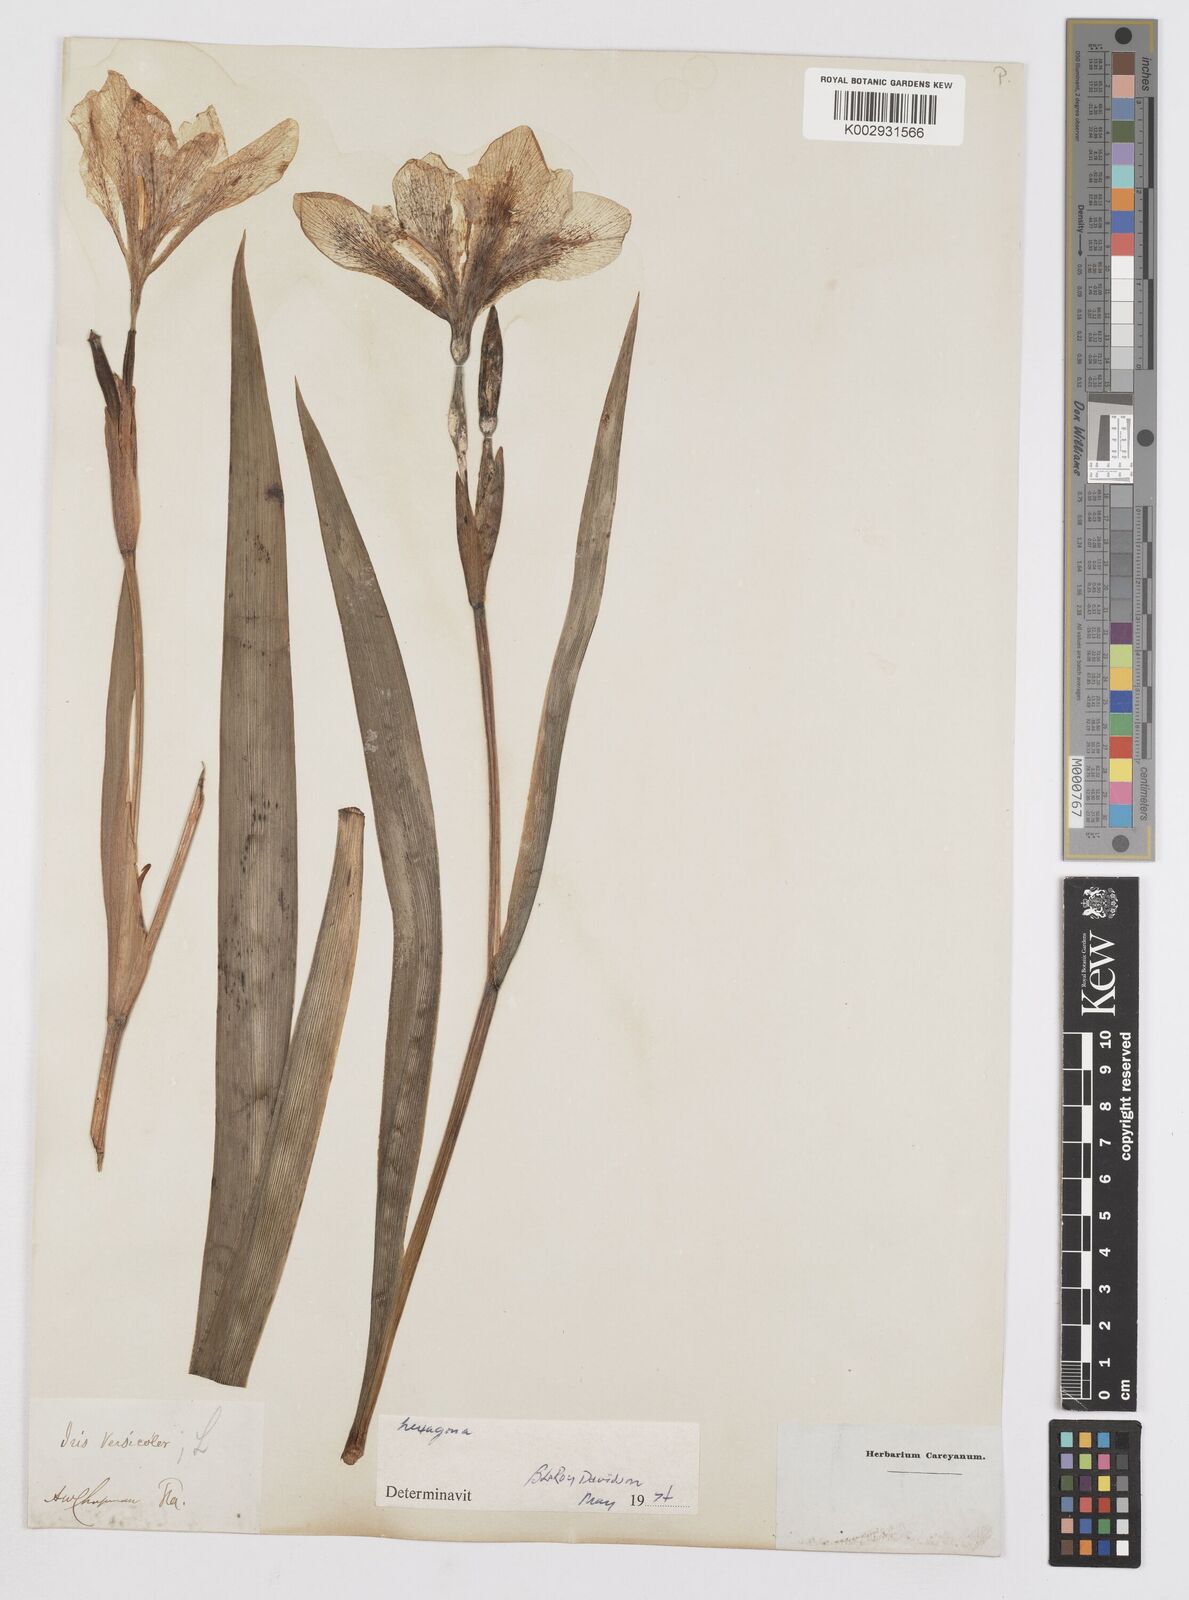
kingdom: Plantae
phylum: Tracheophyta
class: Liliopsida
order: Asparagales
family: Iridaceae
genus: Iris
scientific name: Iris virginica
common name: Southern blue flag
